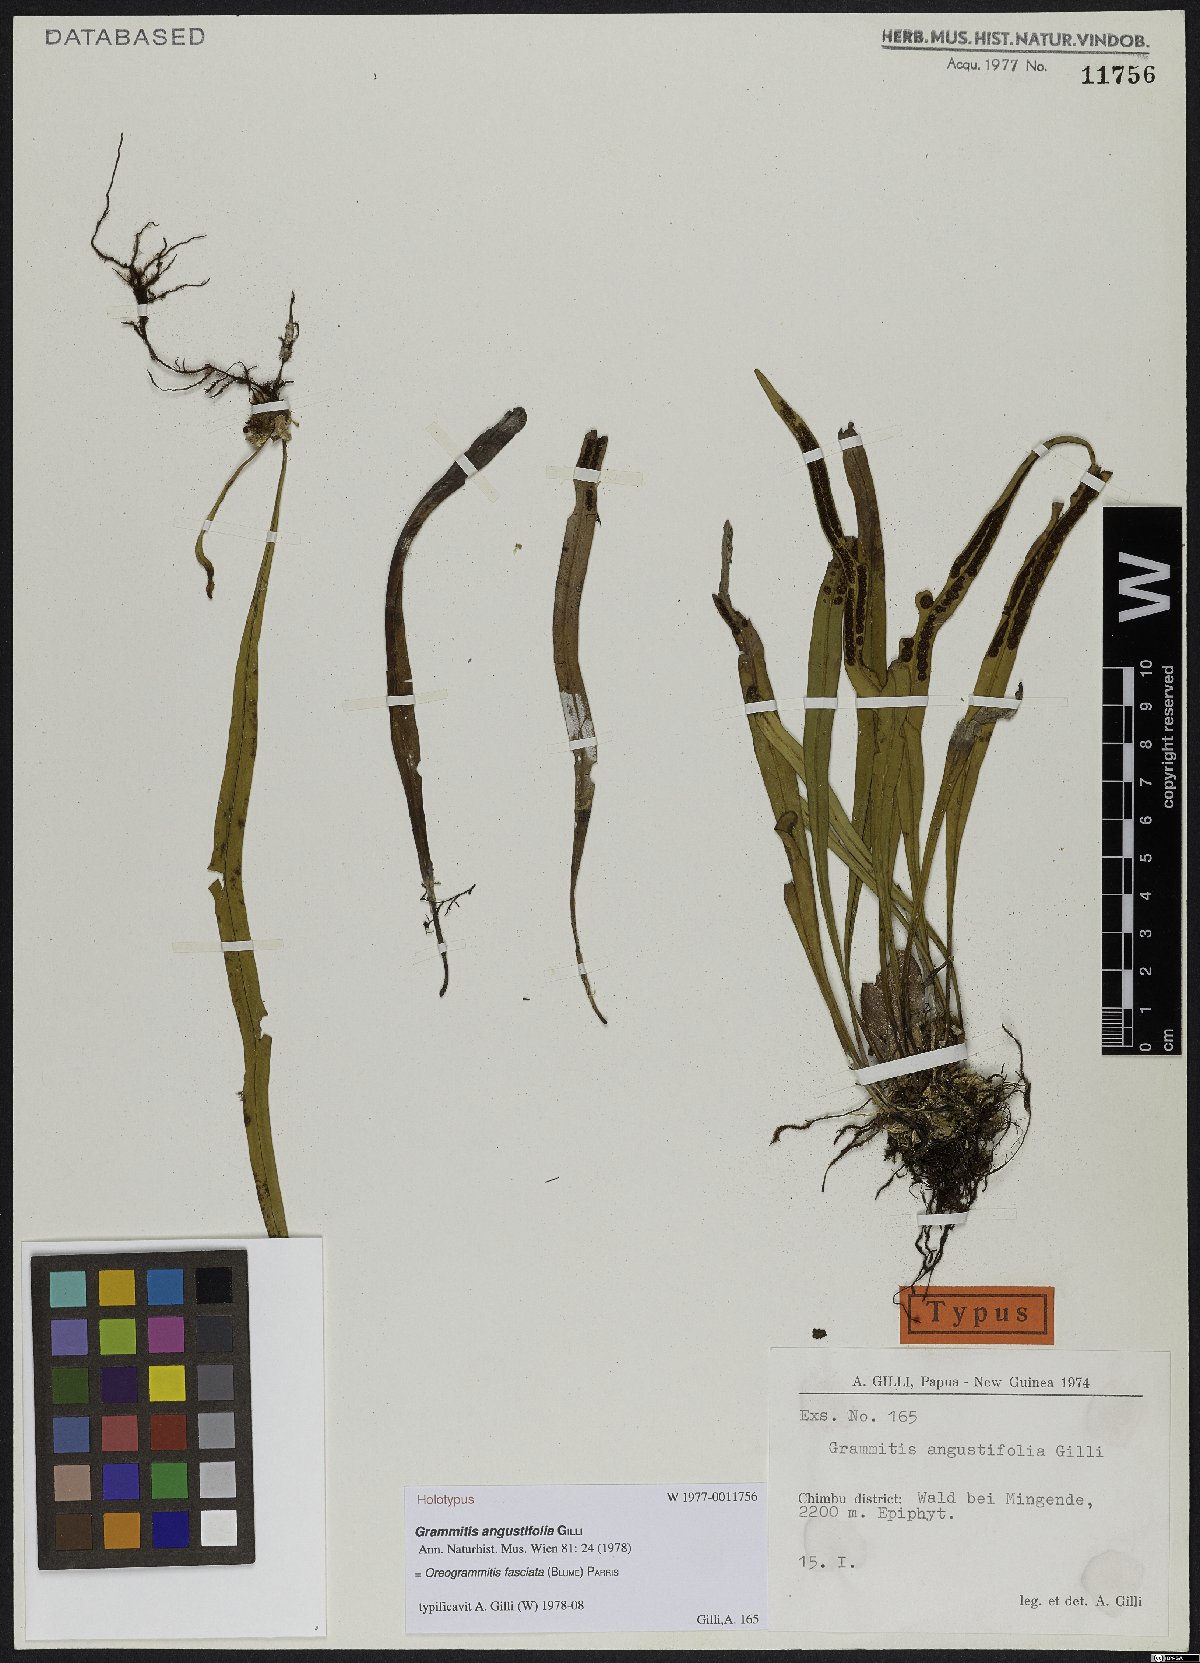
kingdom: Plantae
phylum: Tracheophyta
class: Polypodiopsida
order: Polypodiales
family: Polypodiaceae
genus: Oreogrammitis
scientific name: Oreogrammitis fasciata
